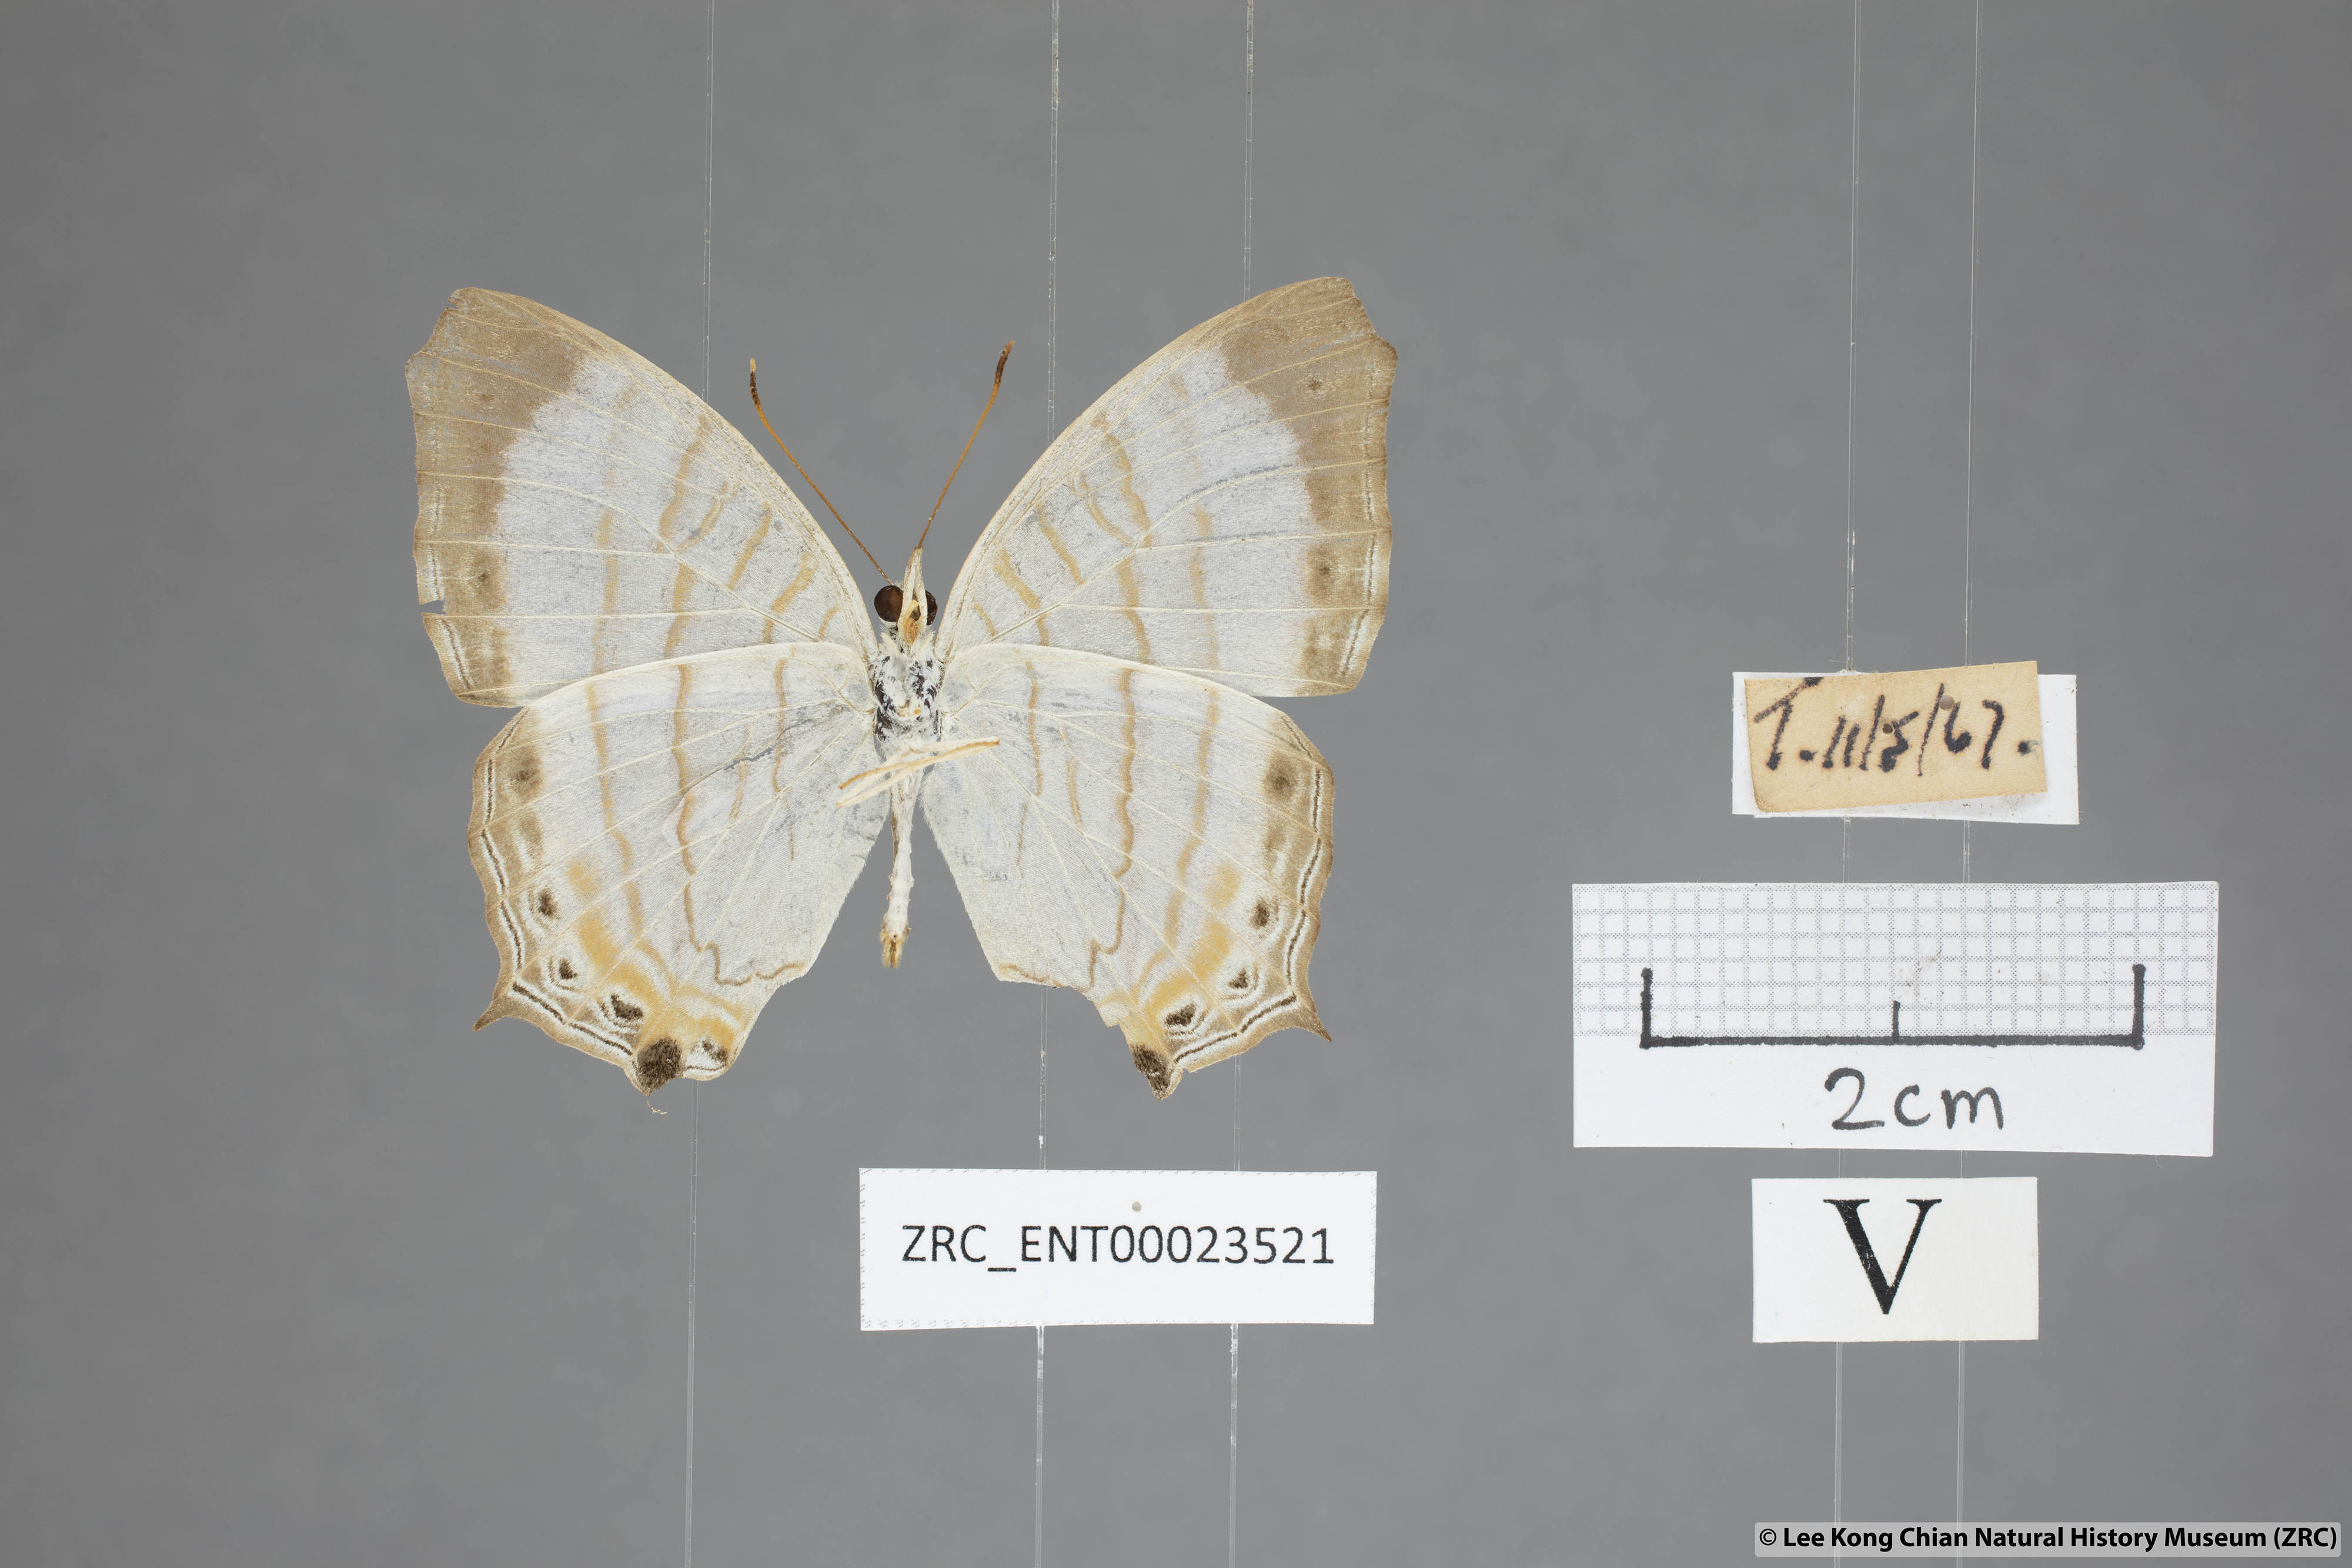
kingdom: Animalia
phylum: Arthropoda
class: Insecta
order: Lepidoptera
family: Nymphalidae
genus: Cyrestis
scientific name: Cyrestis themire
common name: Little mapwing
